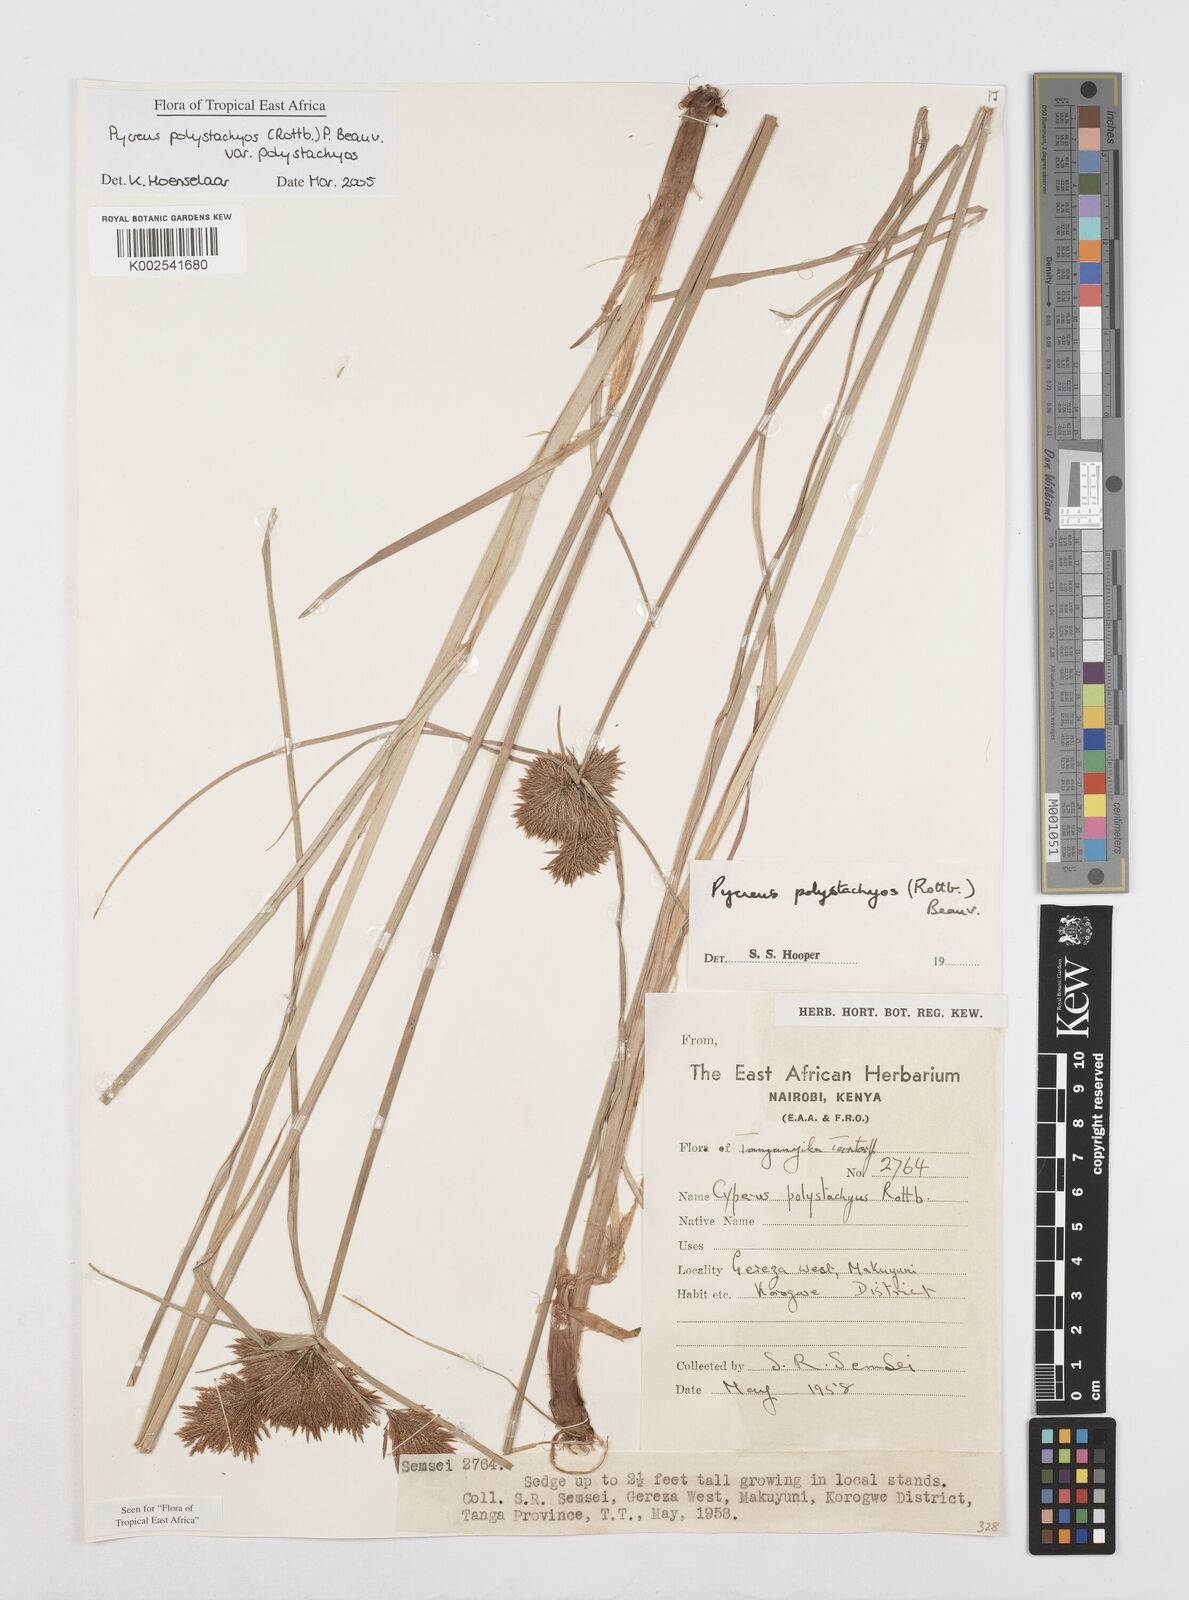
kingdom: Plantae
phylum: Tracheophyta
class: Liliopsida
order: Poales
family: Cyperaceae
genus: Cyperus
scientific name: Cyperus polystachyos
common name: Bunchy flat sedge
